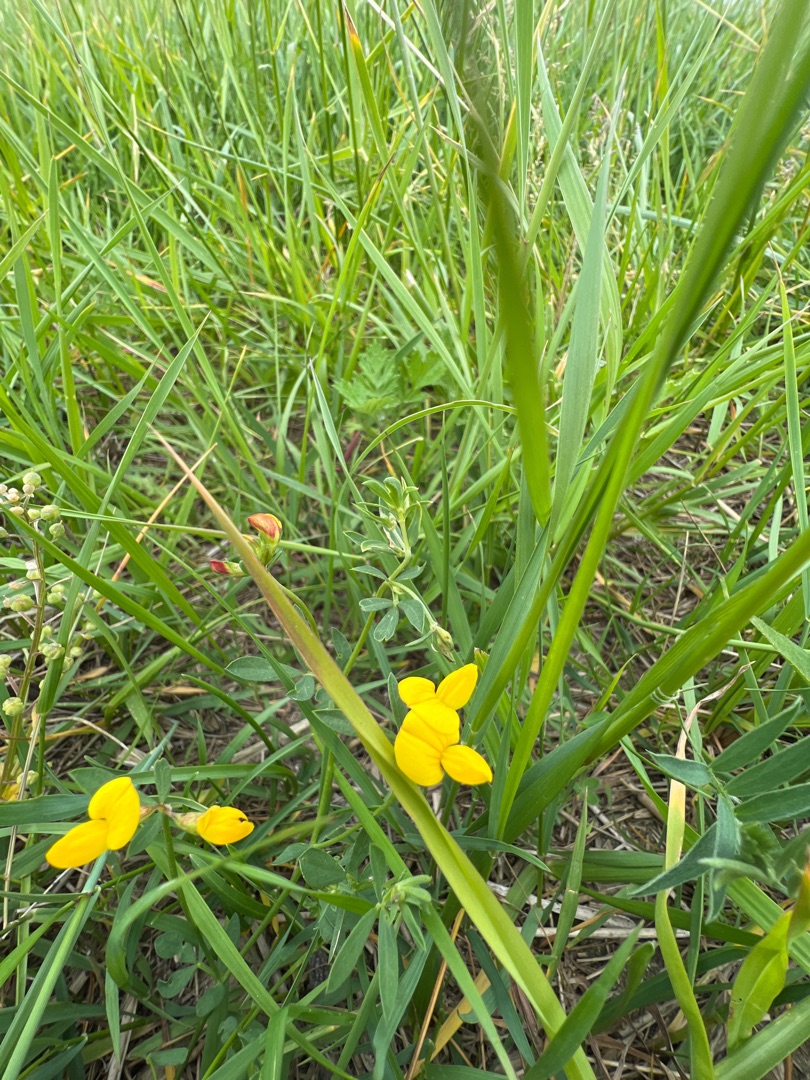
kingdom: Plantae
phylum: Tracheophyta
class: Magnoliopsida
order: Fabales
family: Fabaceae
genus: Lotus
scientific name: Lotus tenuis
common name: Smalbladet kællingetand
